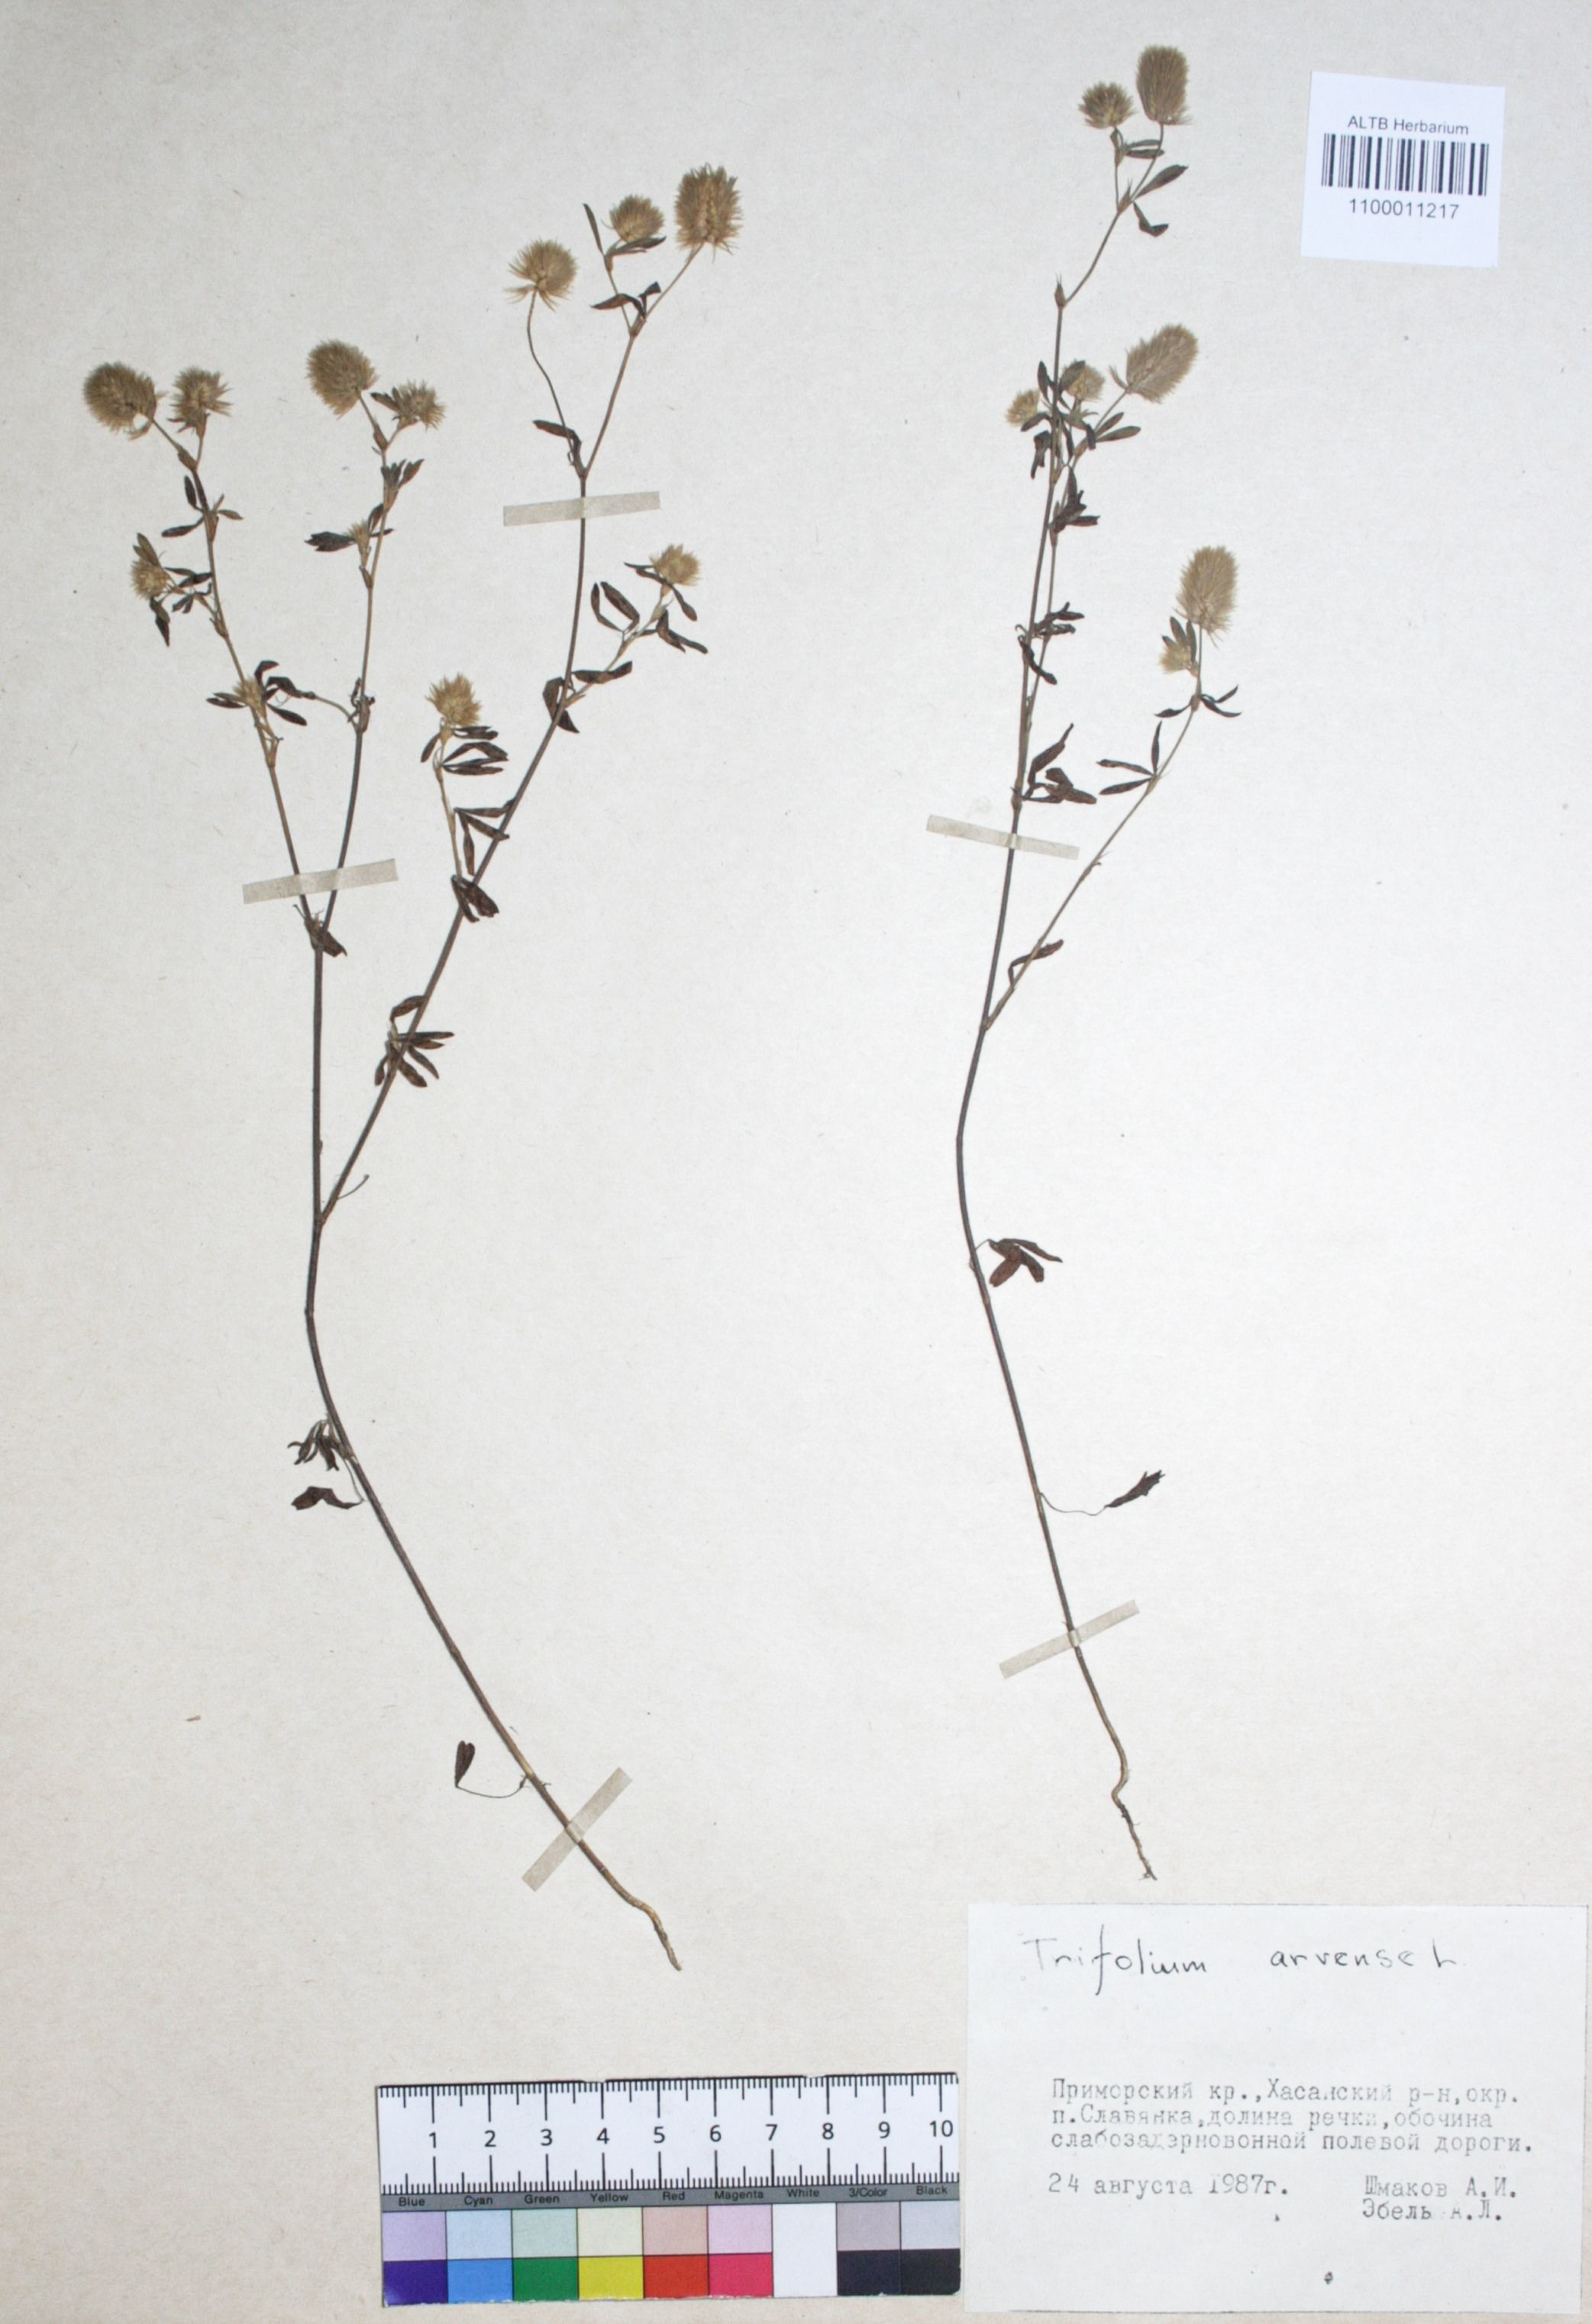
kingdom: Plantae
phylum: Tracheophyta
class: Magnoliopsida
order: Fabales
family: Fabaceae
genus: Trifolium
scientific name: Trifolium arvense
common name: Hare's-foot clover
